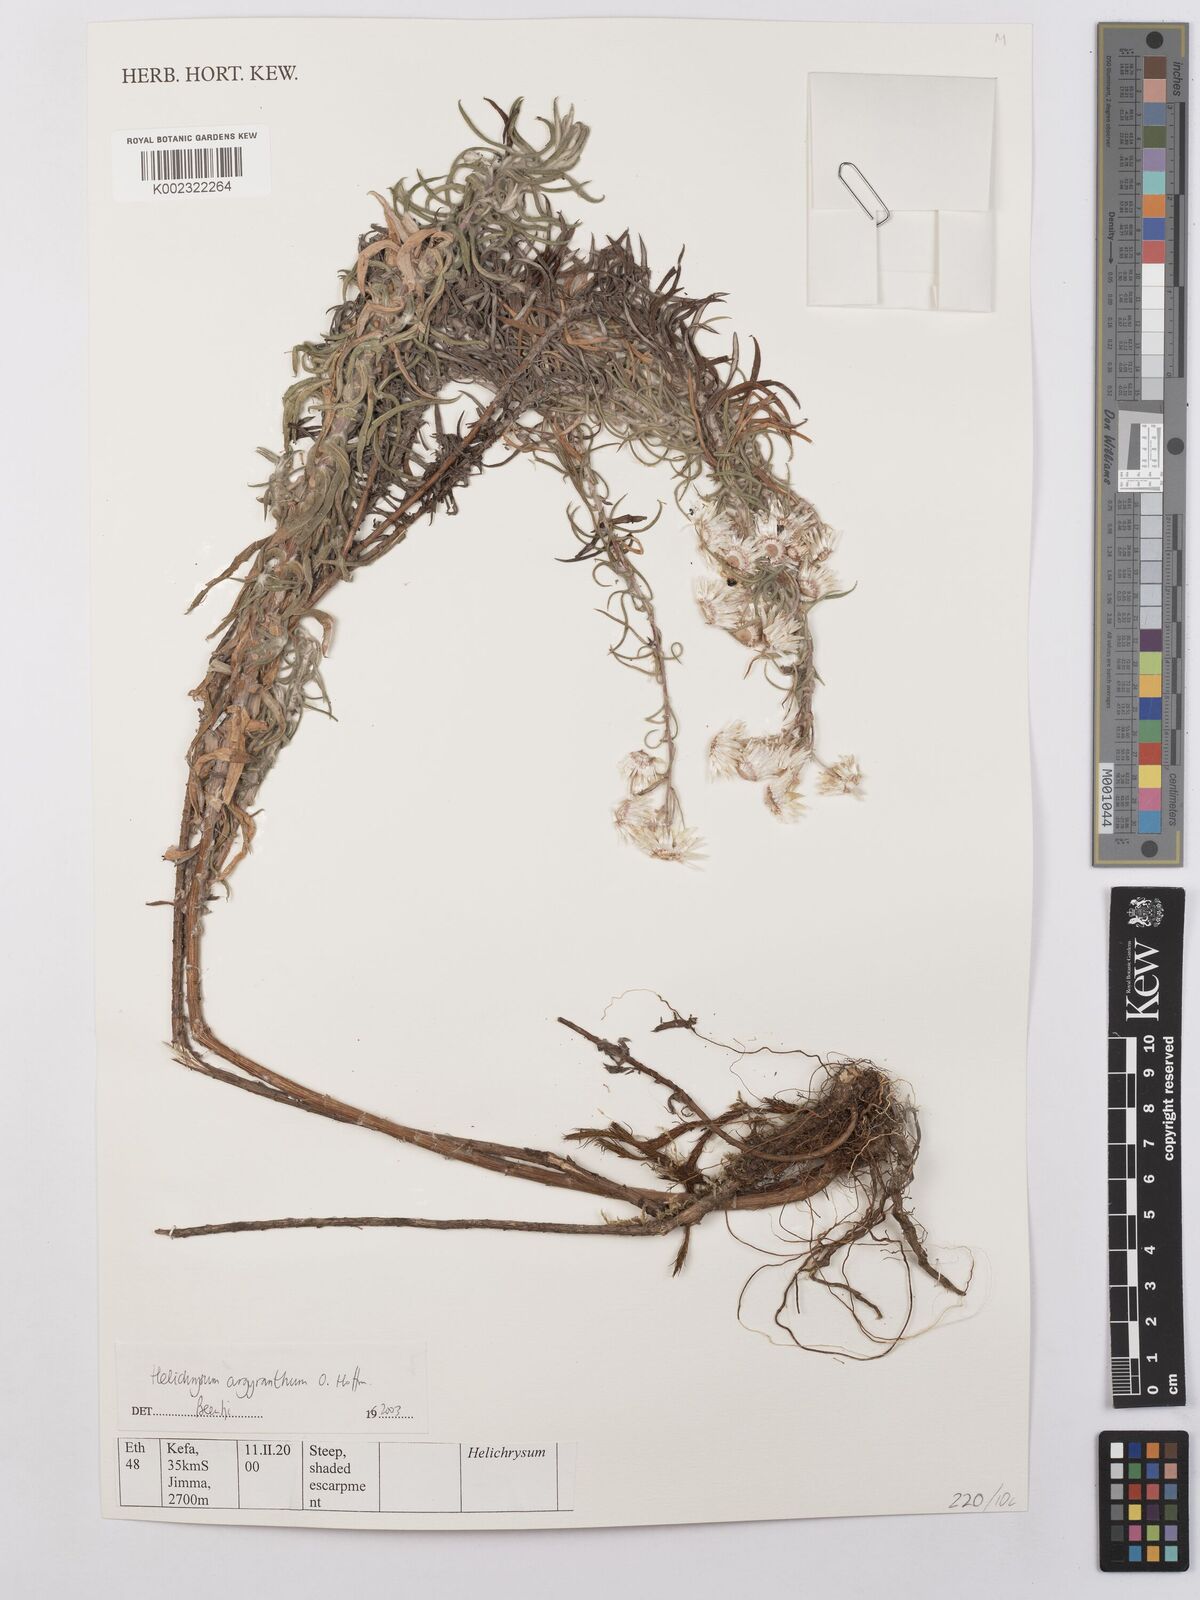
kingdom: Plantae
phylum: Tracheophyta
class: Magnoliopsida
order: Asterales
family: Asteraceae
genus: Helichrysum
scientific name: Helichrysum argyranthum
